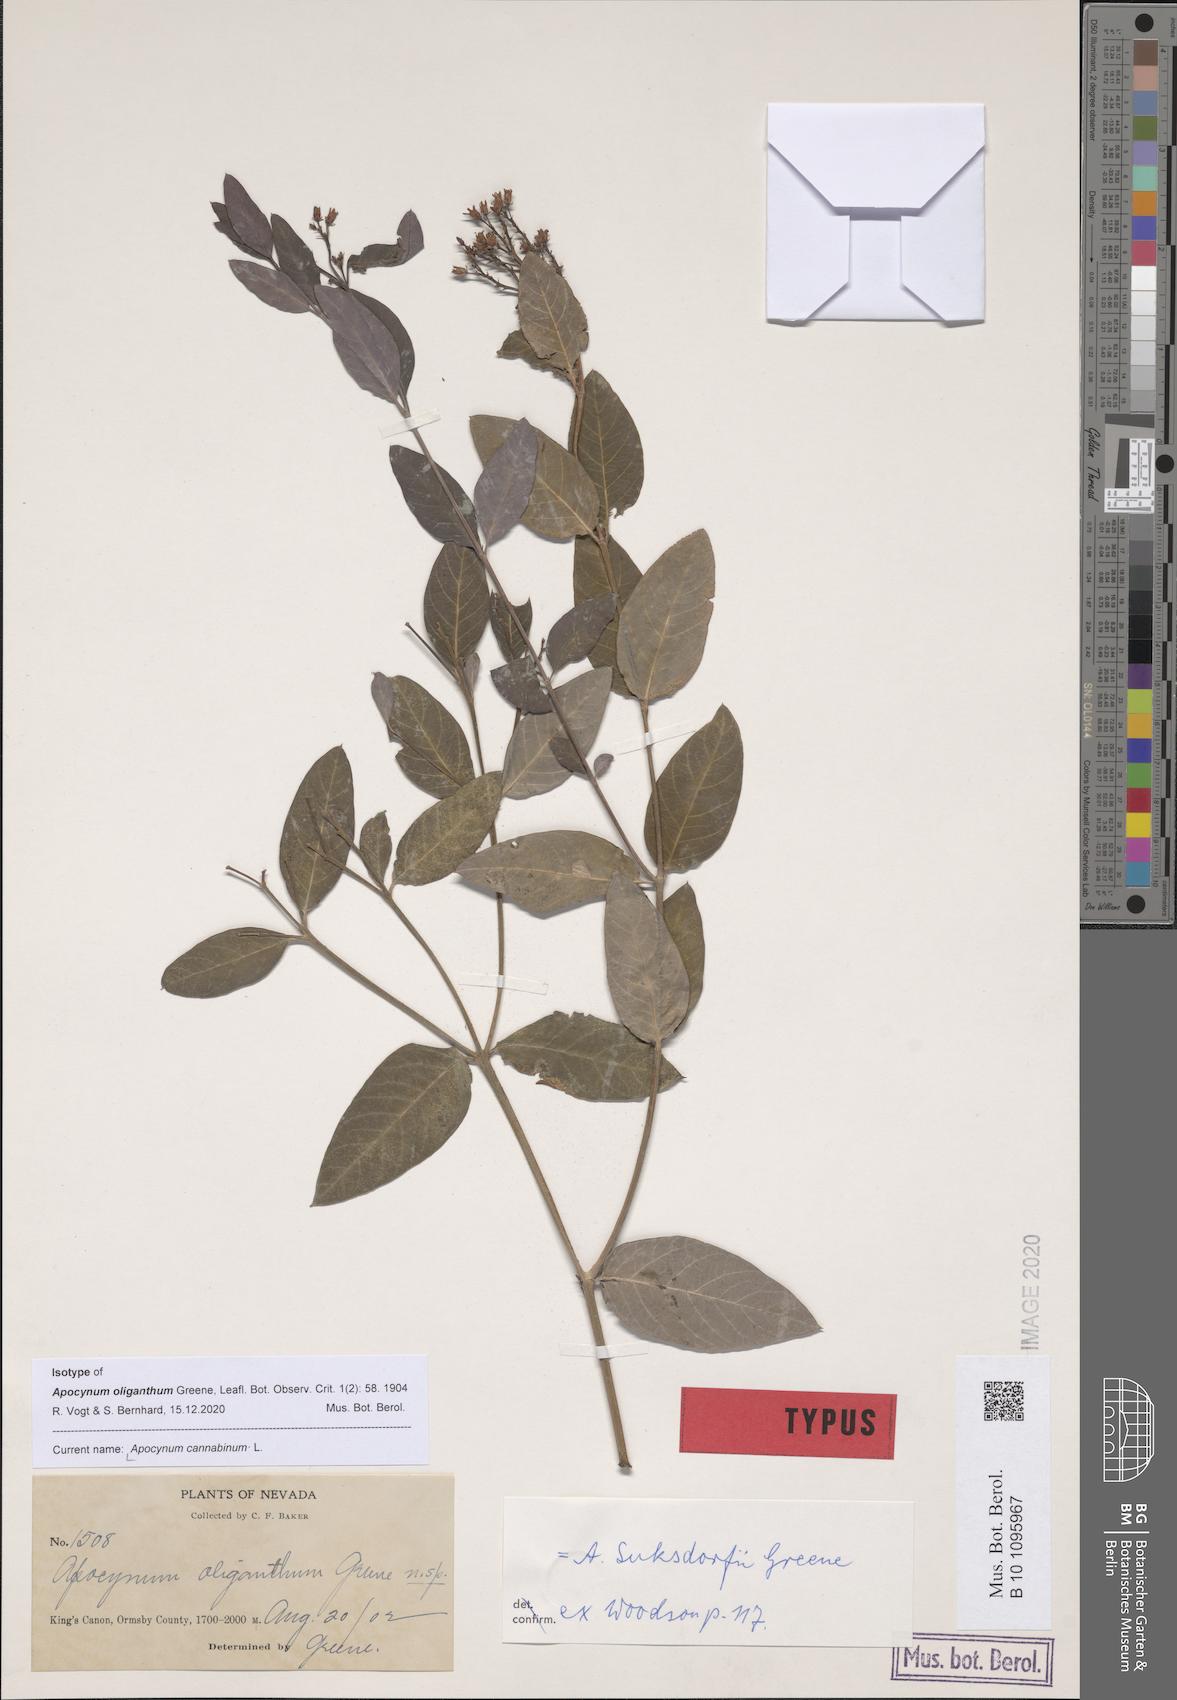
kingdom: Plantae
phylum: Tracheophyta
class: Magnoliopsida
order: Gentianales
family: Apocynaceae
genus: Apocynum
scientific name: Apocynum cannabinum
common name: Hemp dogbane
